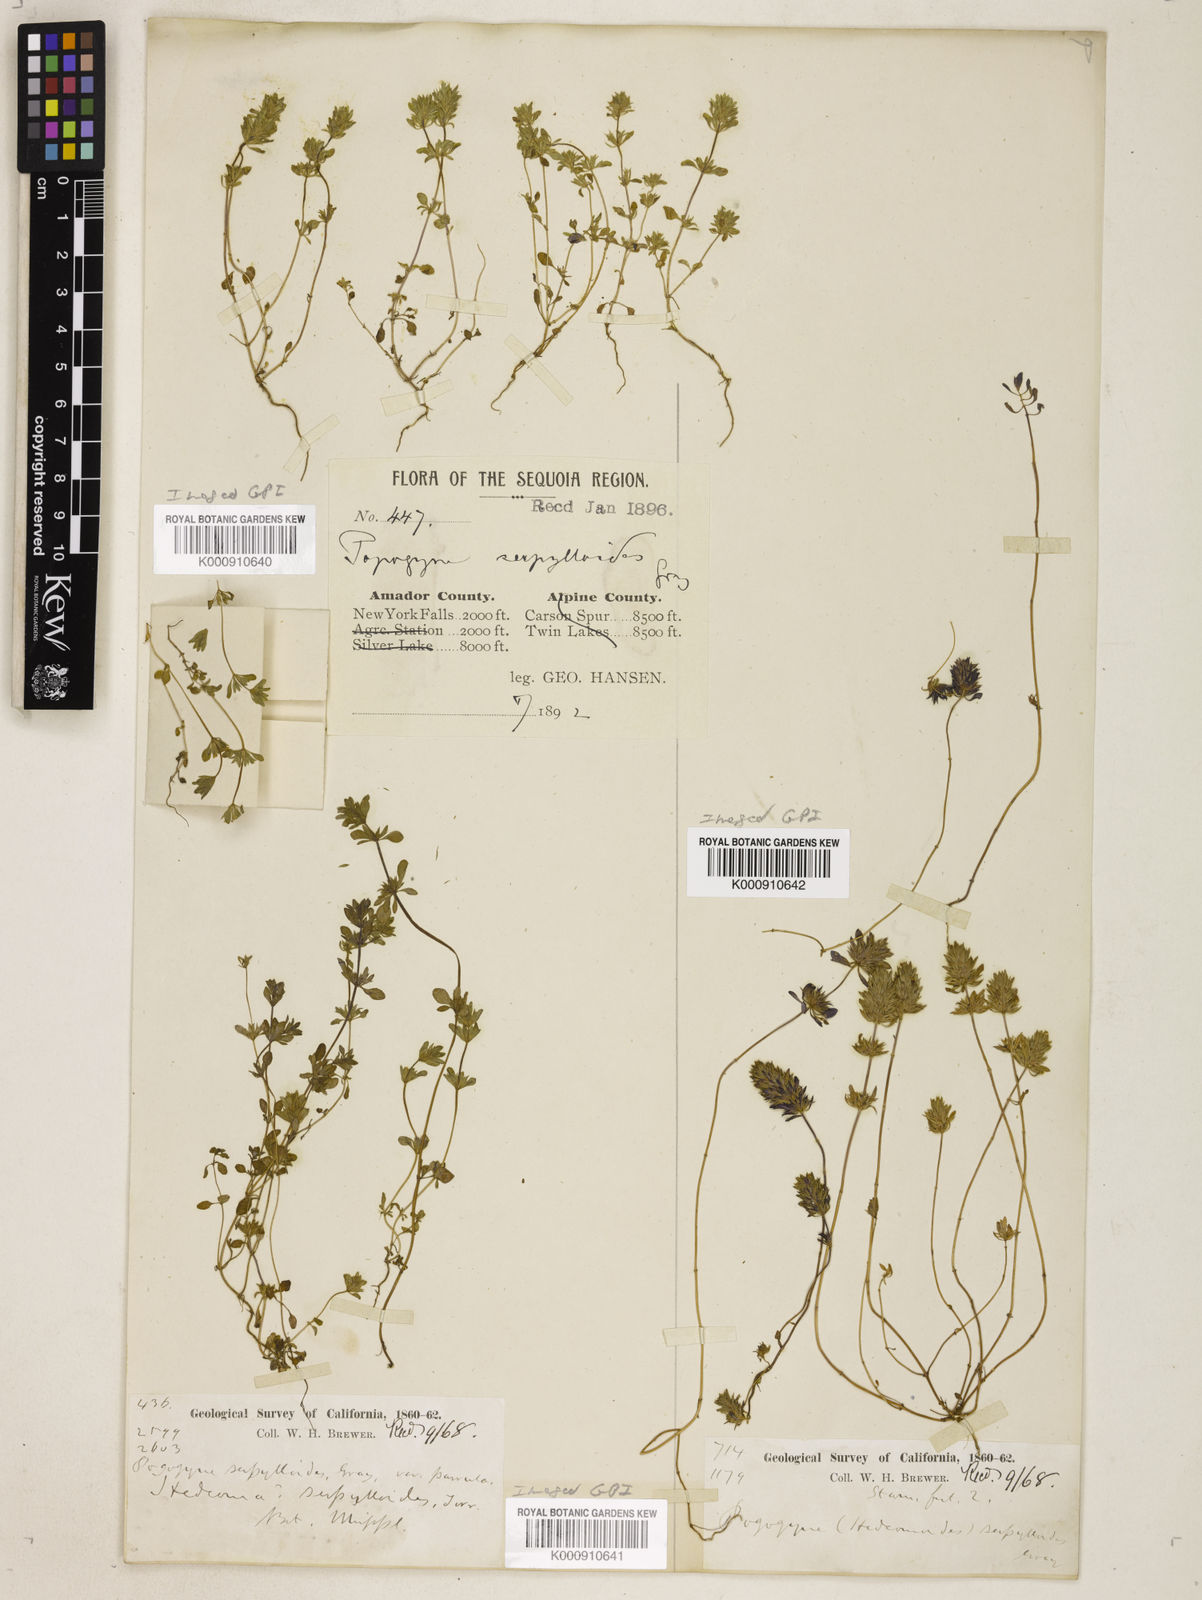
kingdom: Plantae
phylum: Tracheophyta
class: Magnoliopsida
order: Lamiales
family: Lamiaceae
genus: Pogogyne
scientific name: Pogogyne serpylloides
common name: Thymeleaf mesamint
